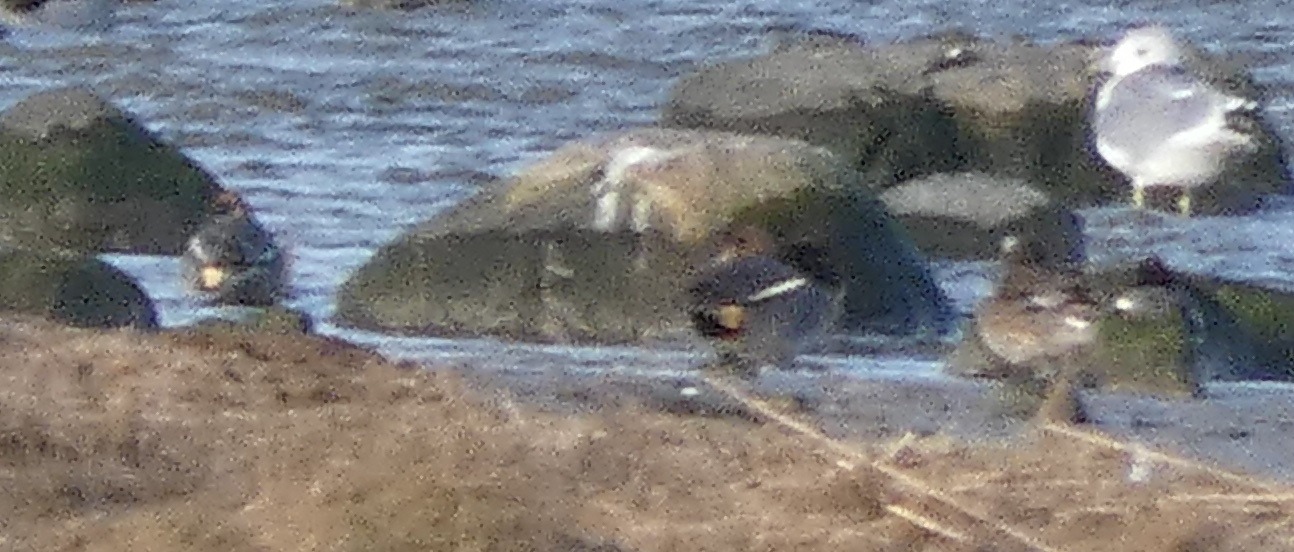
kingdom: Animalia
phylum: Chordata
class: Aves
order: Anseriformes
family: Anatidae
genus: Anas
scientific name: Anas crecca
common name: Krikand
